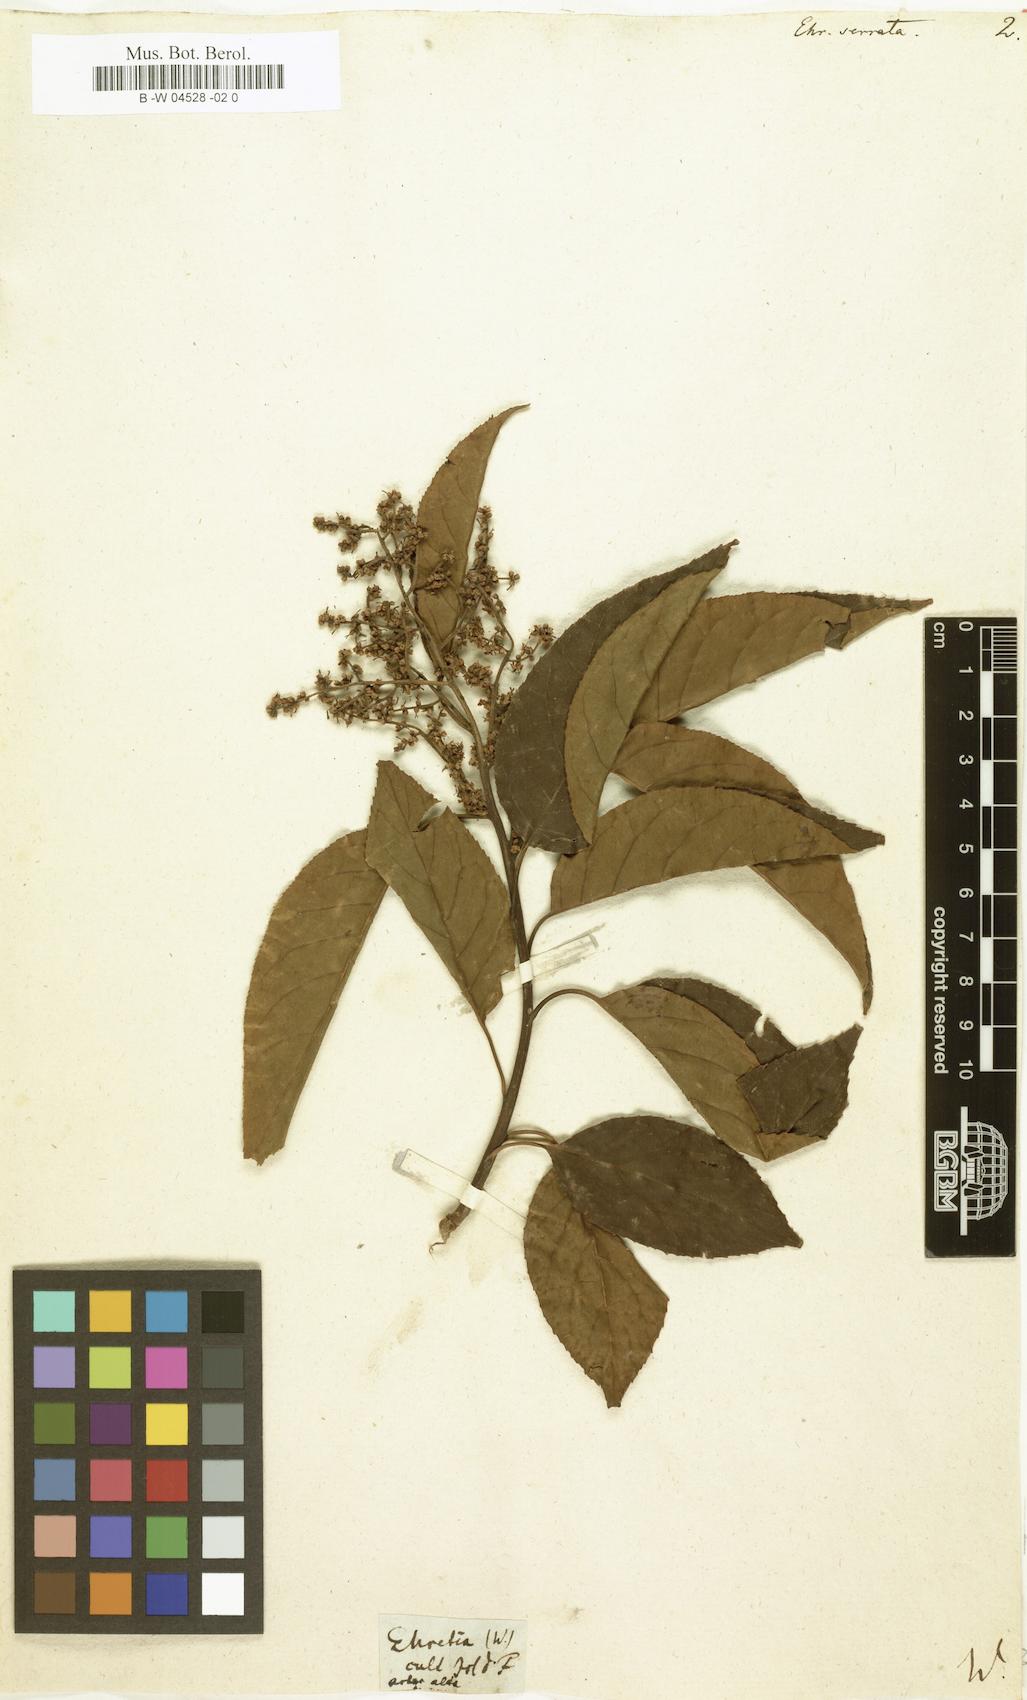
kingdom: Plantae
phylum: Tracheophyta
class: Magnoliopsida
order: Boraginales
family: Ehretiaceae
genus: Ehretia
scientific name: Ehretia acuminata
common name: Kodo wood
